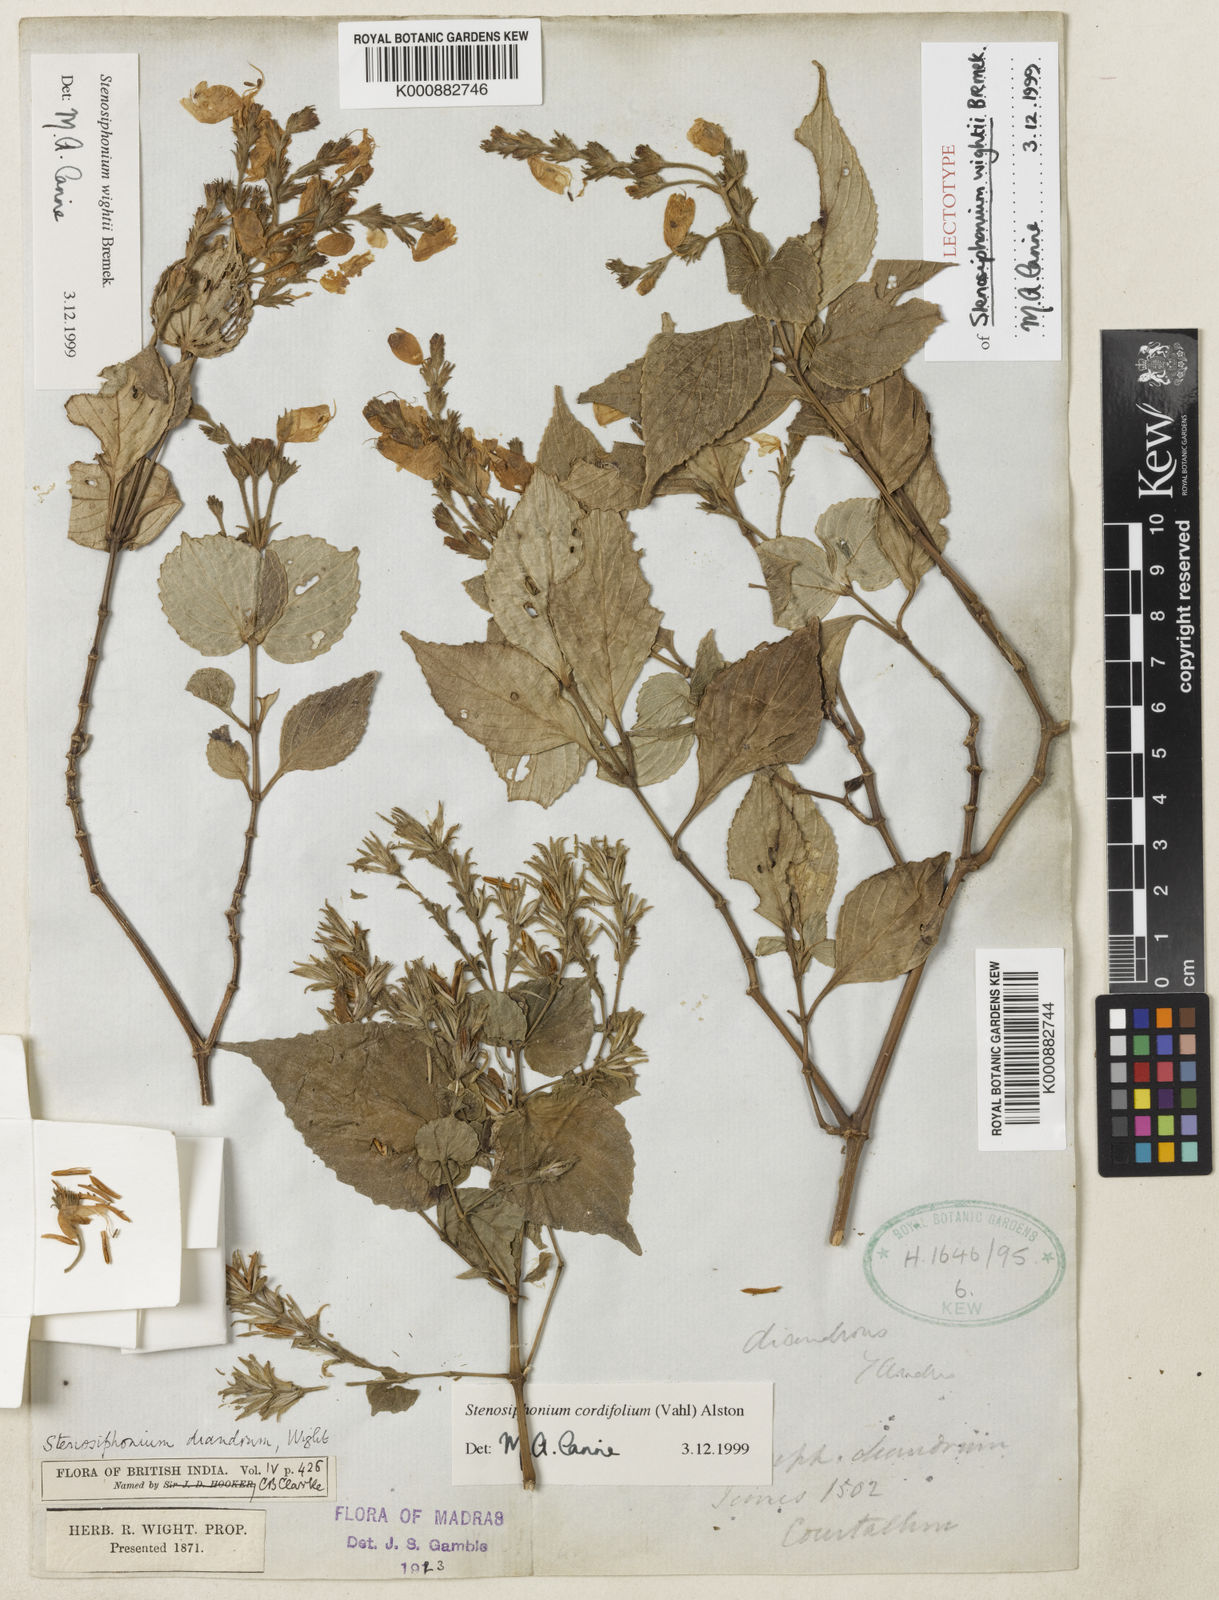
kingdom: Plantae
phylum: Tracheophyta
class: Magnoliopsida
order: Lamiales
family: Acanthaceae
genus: Strobilanthes
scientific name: Strobilanthes cordifolia
